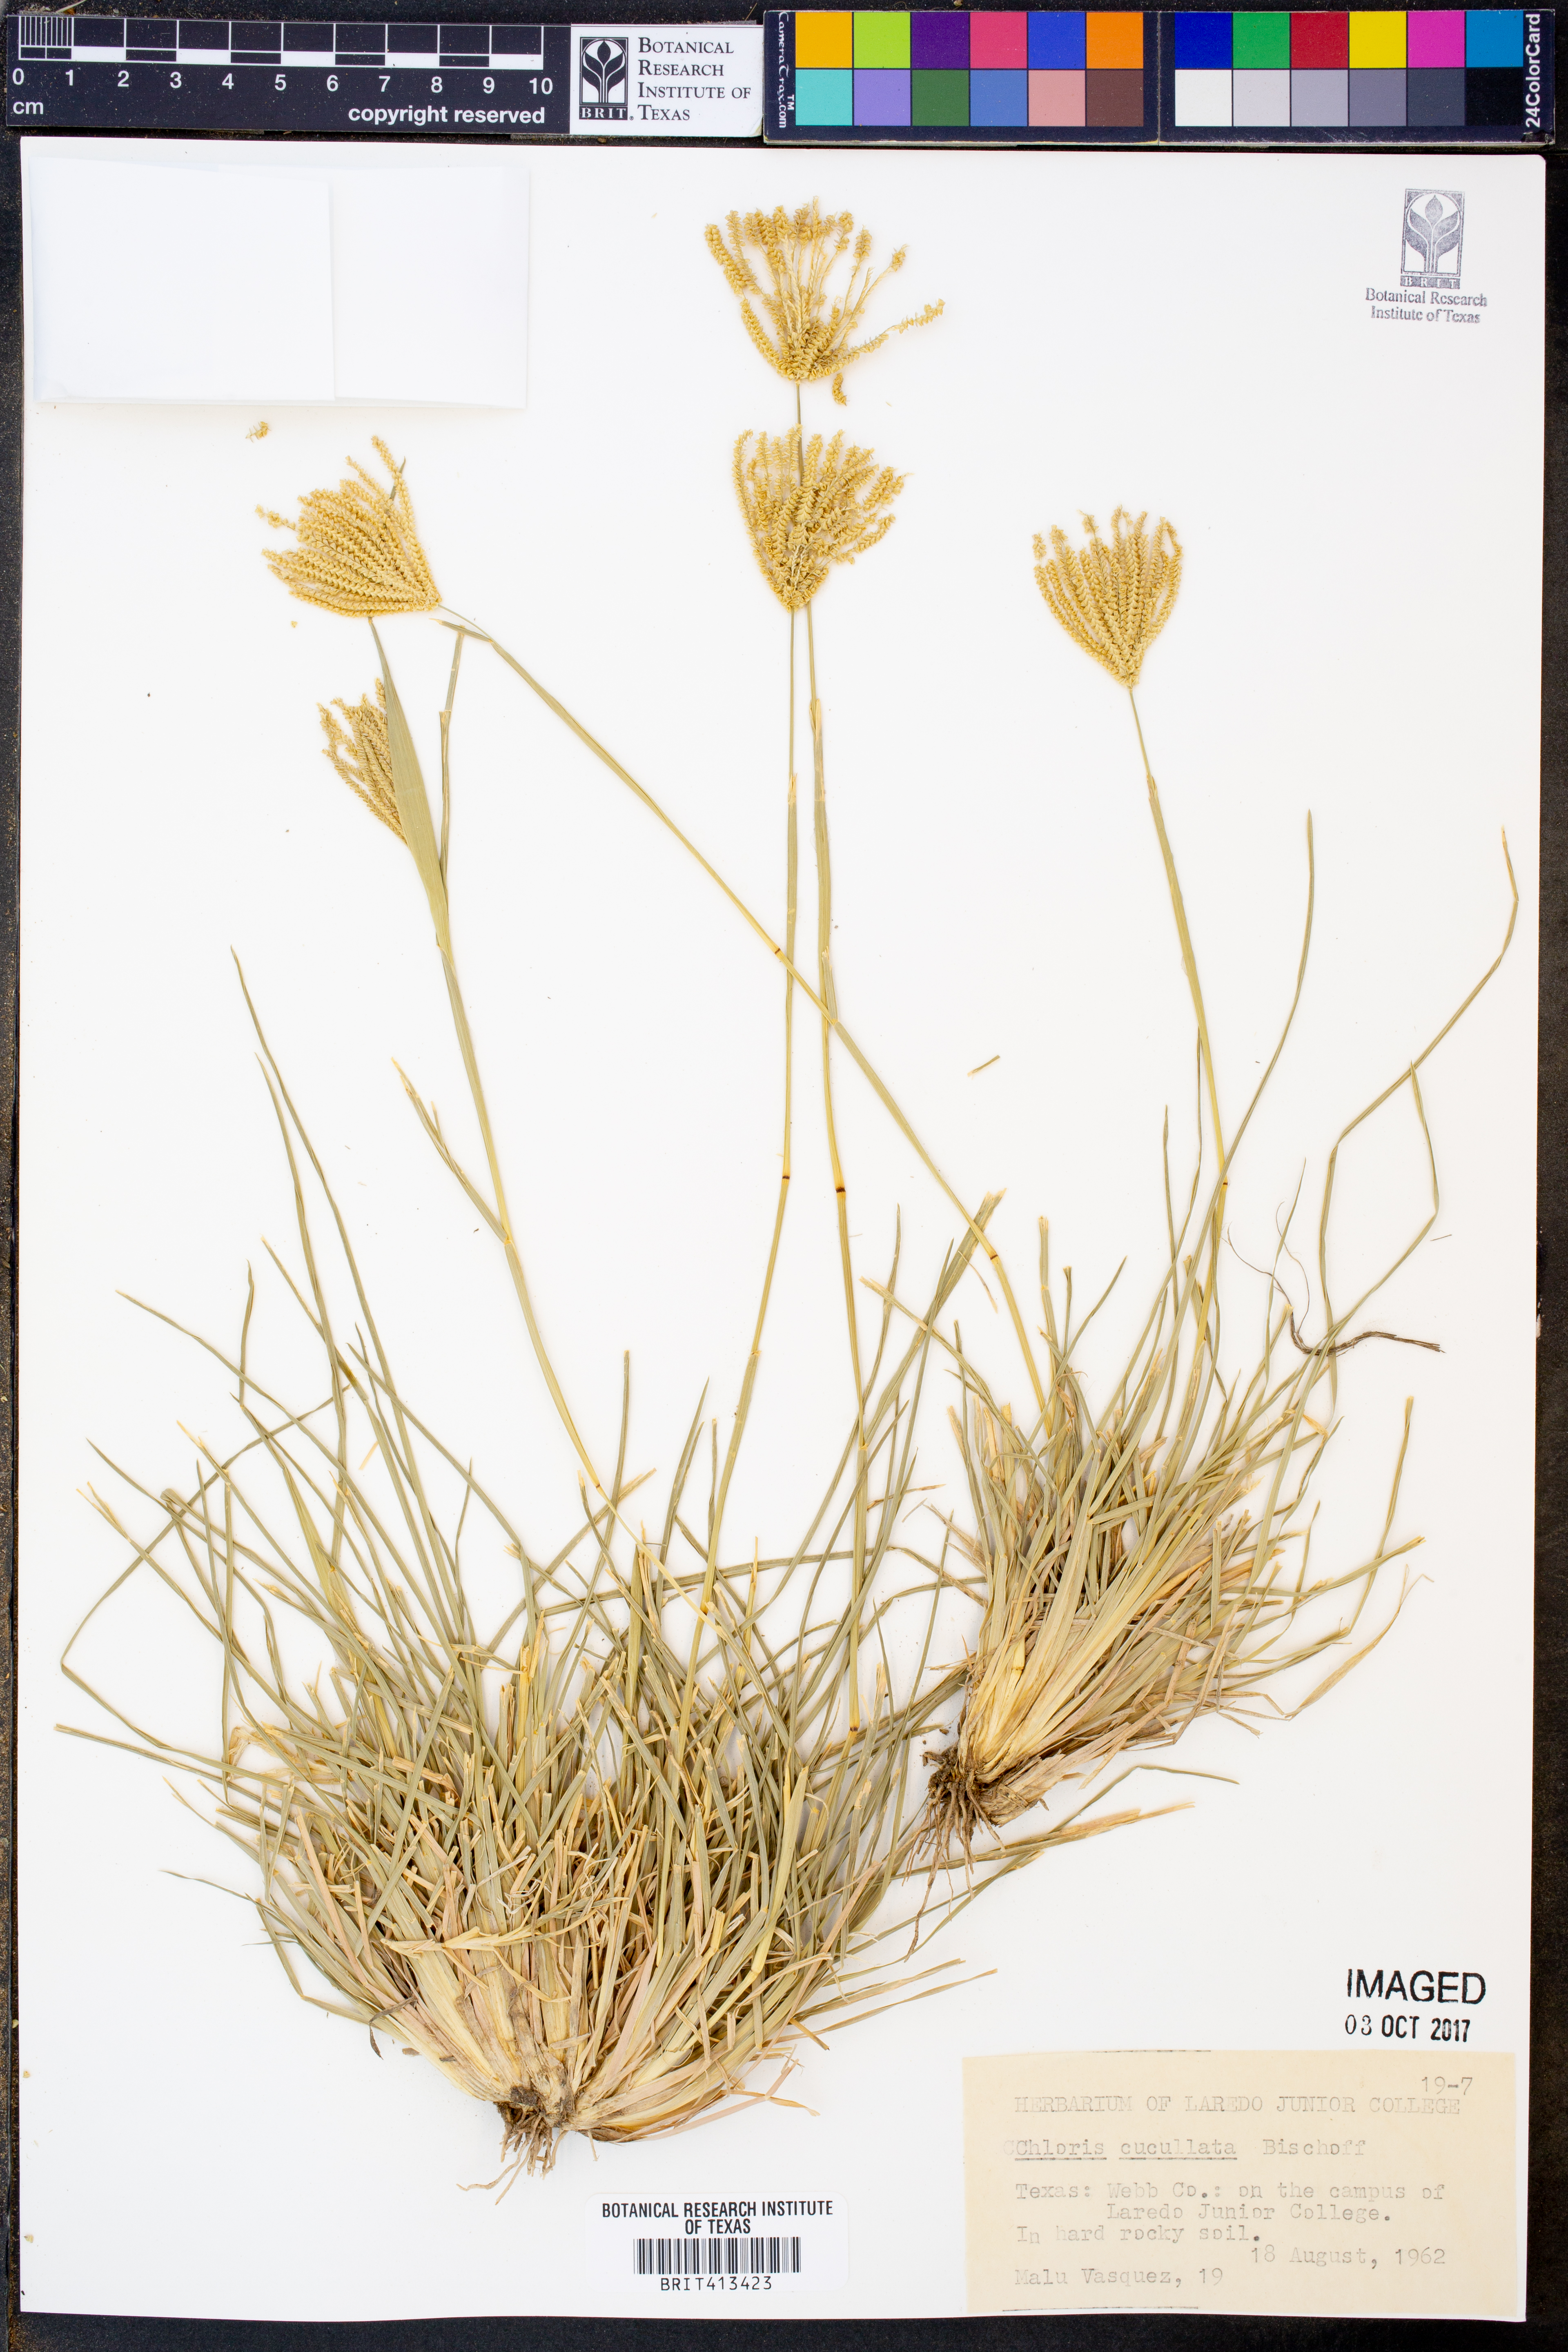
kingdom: Plantae
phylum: Tracheophyta
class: Liliopsida
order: Poales
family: Poaceae
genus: Chloris
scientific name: Chloris cucullata
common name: Hooded windmill grass
